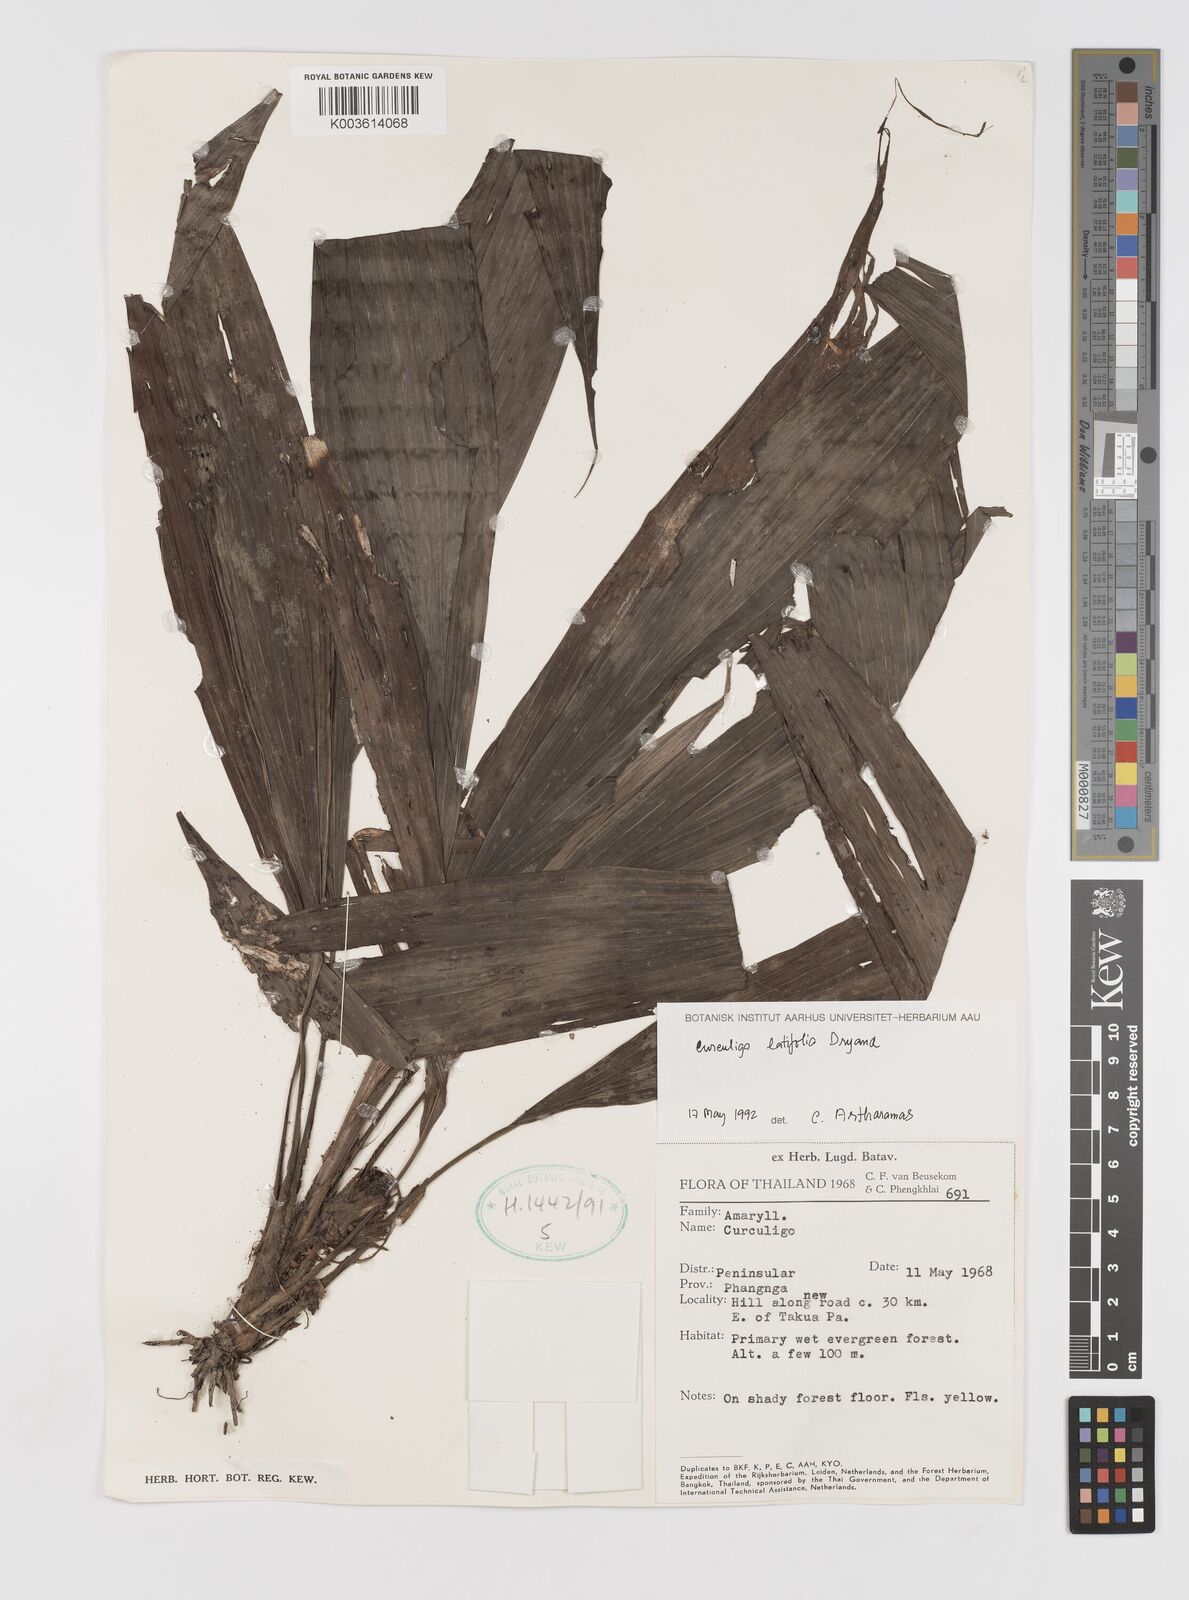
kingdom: Plantae
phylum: Tracheophyta
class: Liliopsida
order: Asparagales
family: Hypoxidaceae
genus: Curculigo
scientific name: Curculigo latifolia
